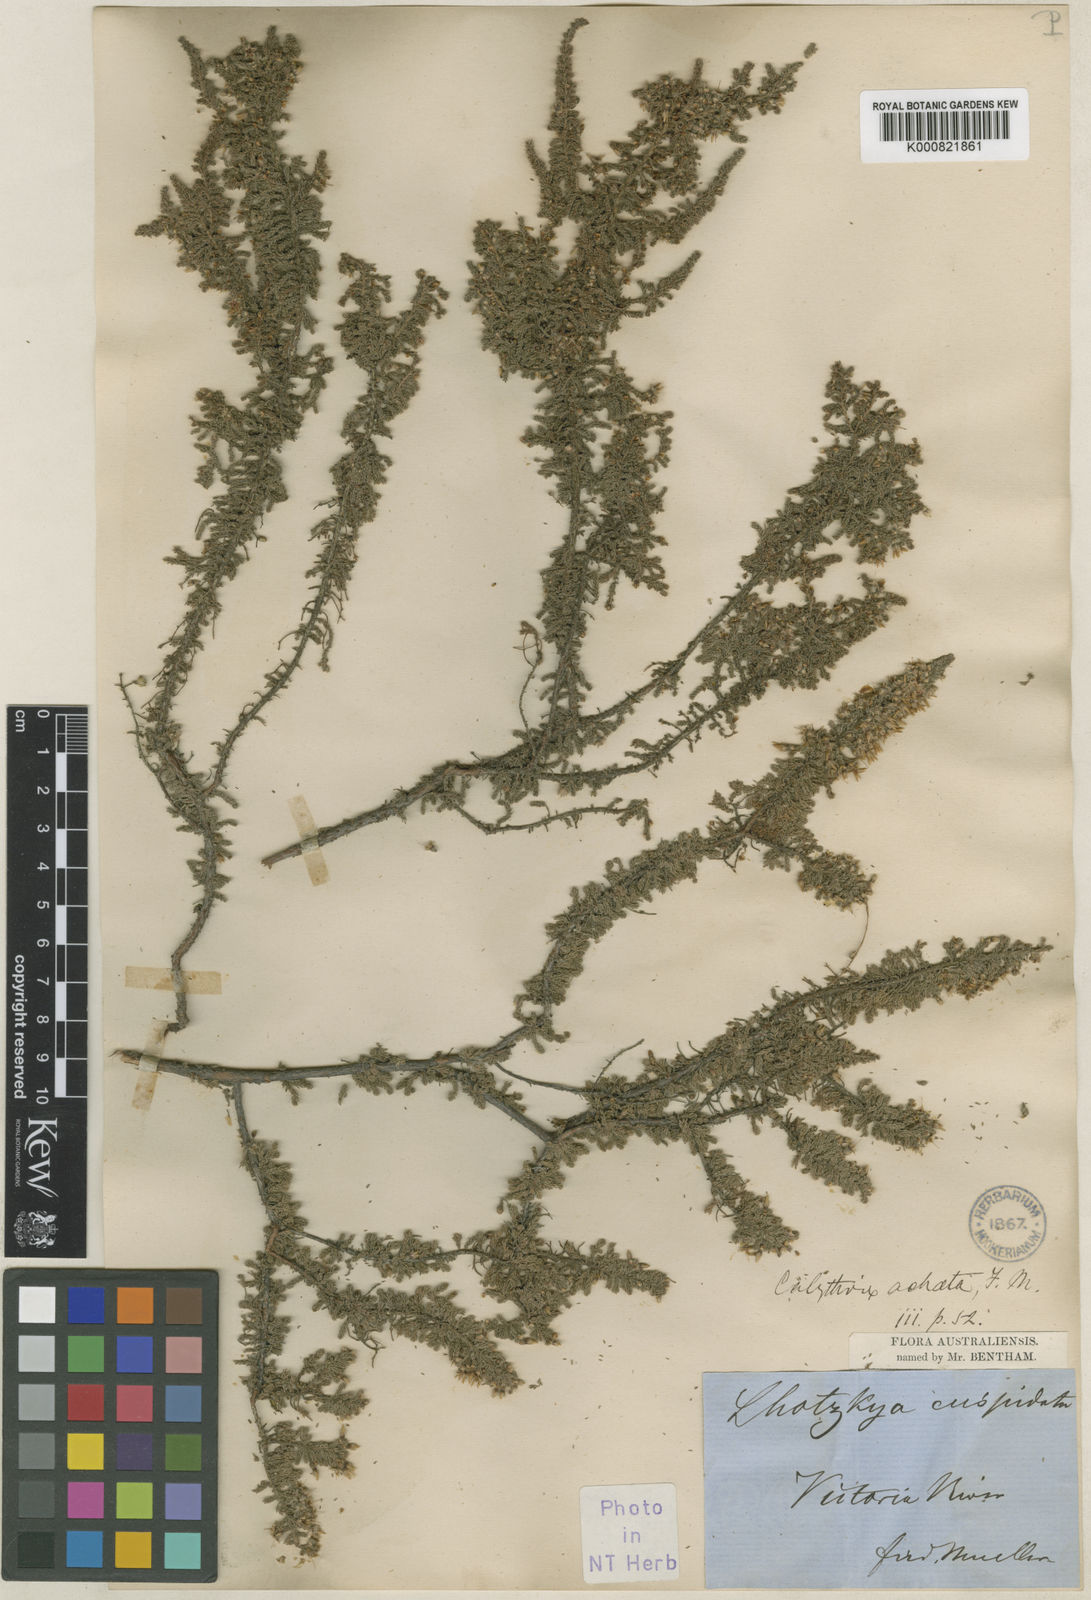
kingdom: Plantae
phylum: Tracheophyta
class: Magnoliopsida
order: Myrtales
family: Myrtaceae
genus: Calytrix
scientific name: Calytrix achaeta
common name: Fringe myrtle
